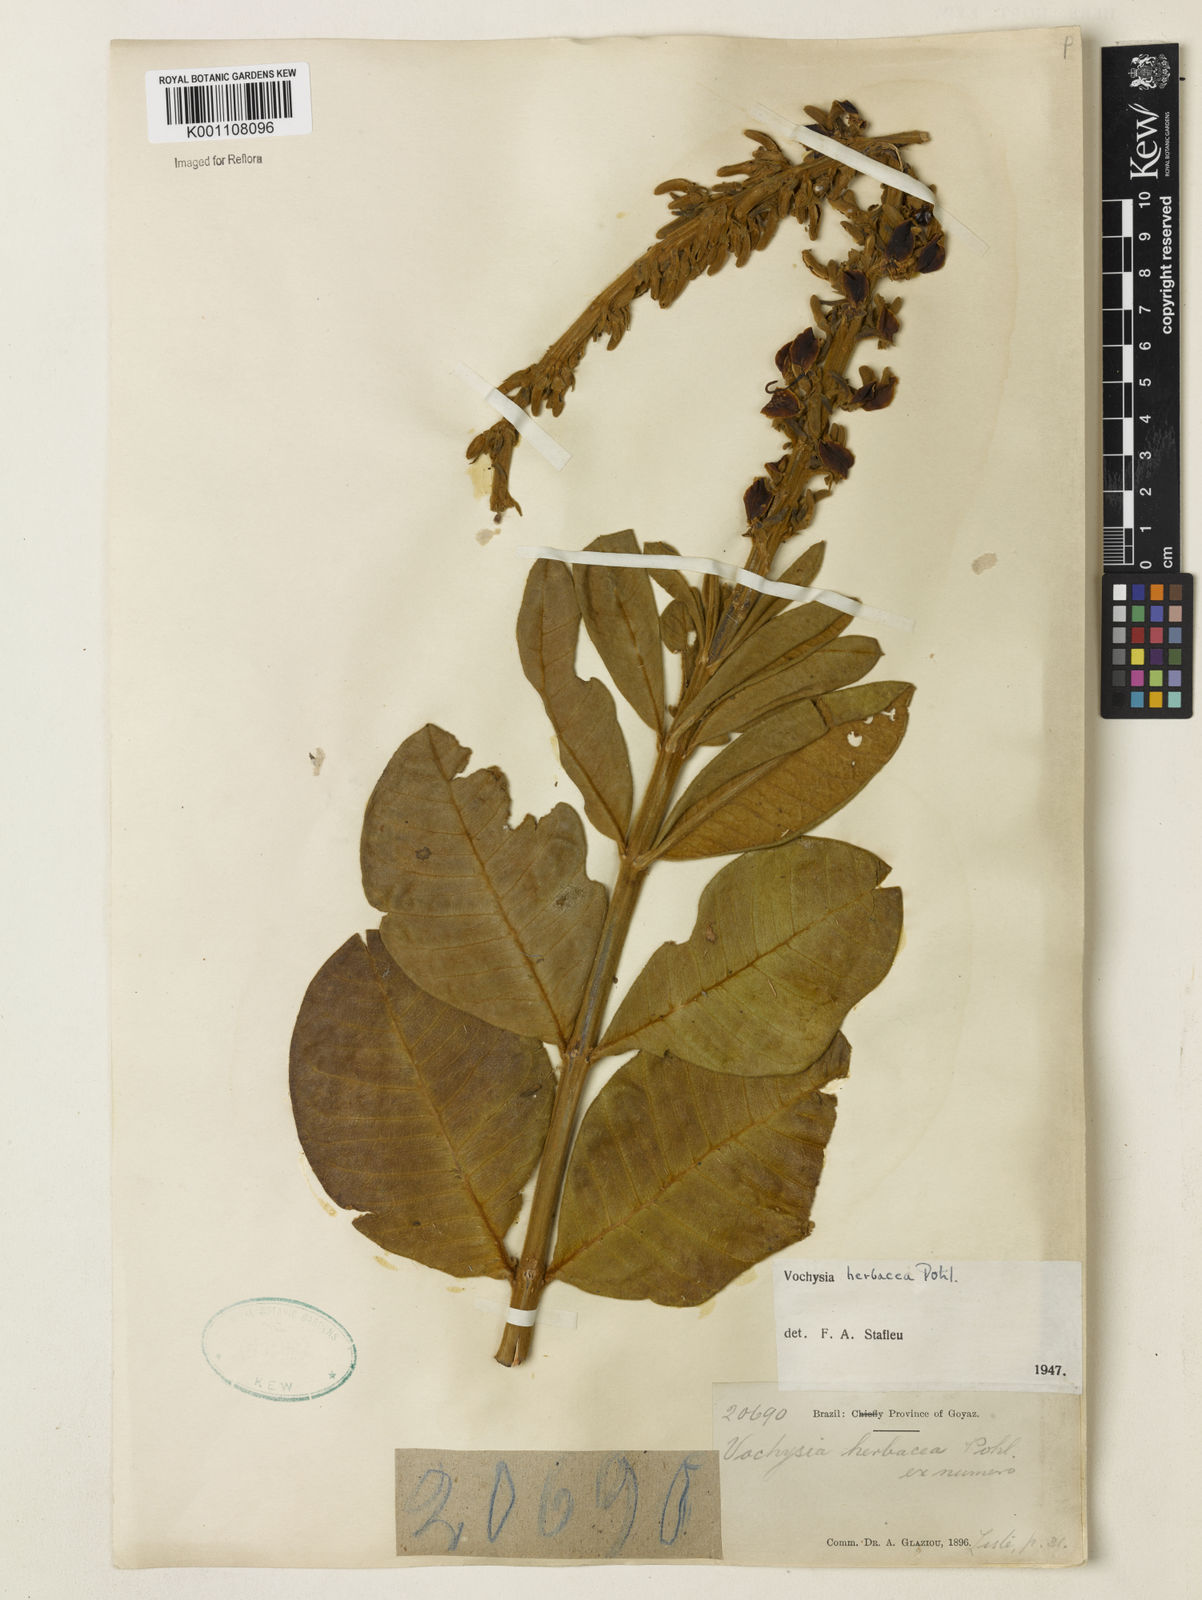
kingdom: Plantae
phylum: Tracheophyta
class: Magnoliopsida
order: Myrtales
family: Vochysiaceae
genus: Vochysia
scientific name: Vochysia herbacea
